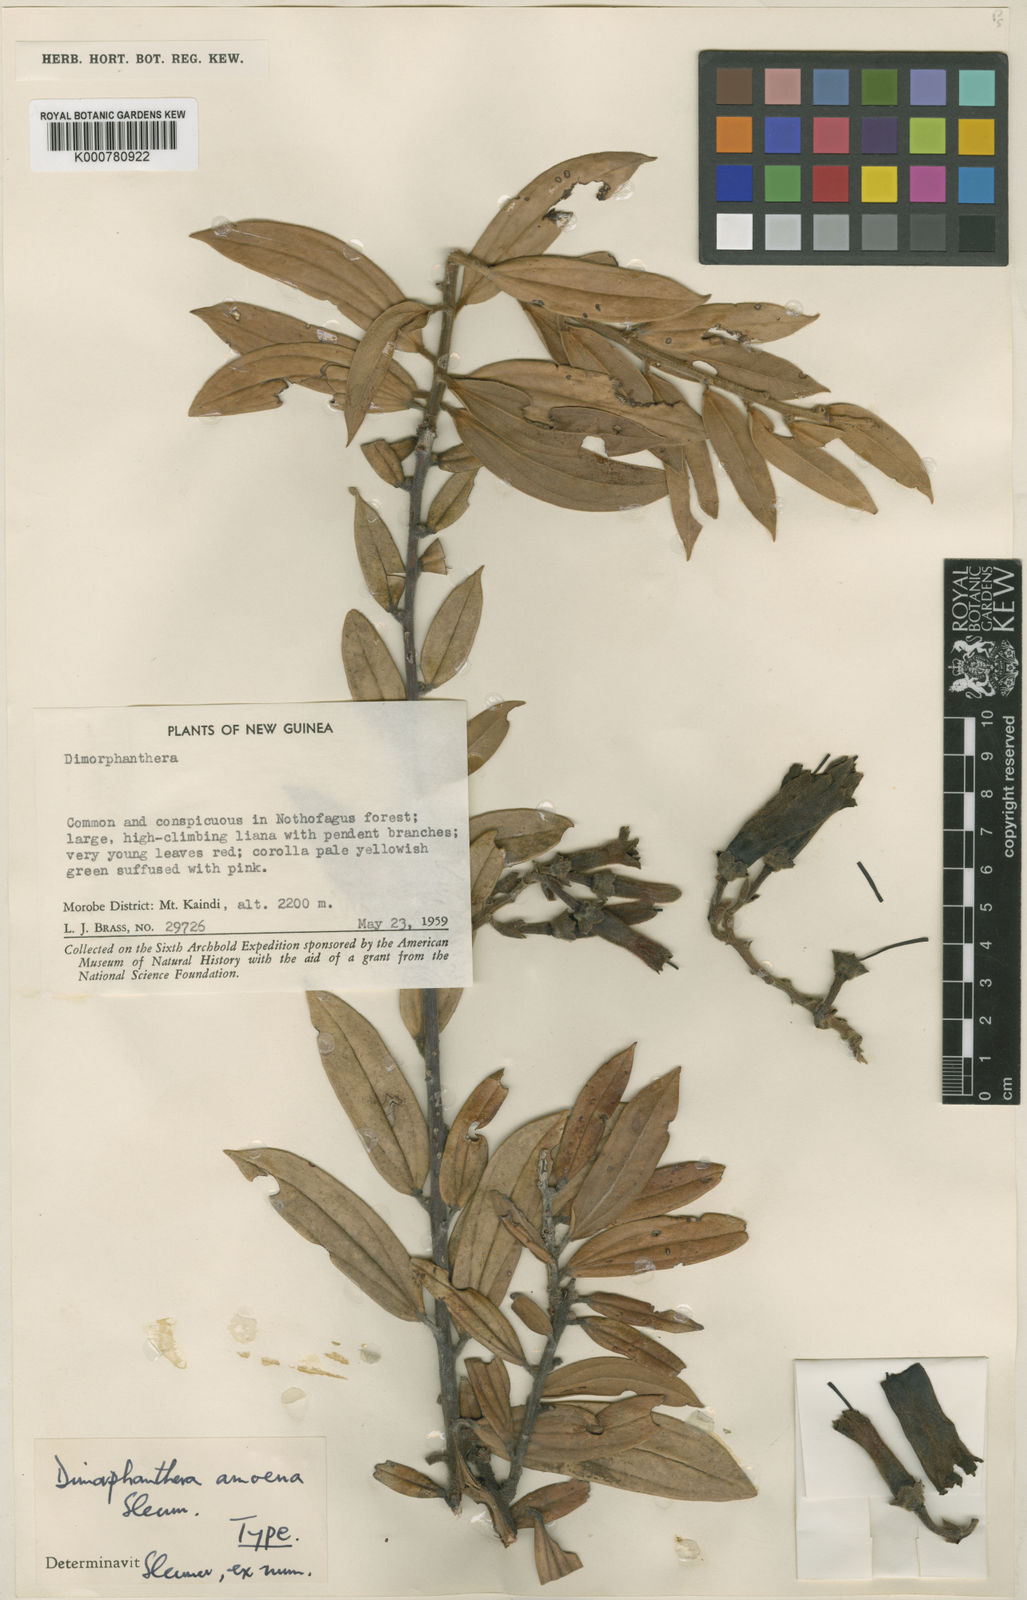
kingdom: Plantae
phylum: Tracheophyta
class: Magnoliopsida
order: Ericales
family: Ericaceae
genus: Dimorphanthera
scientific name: Dimorphanthera amoena
